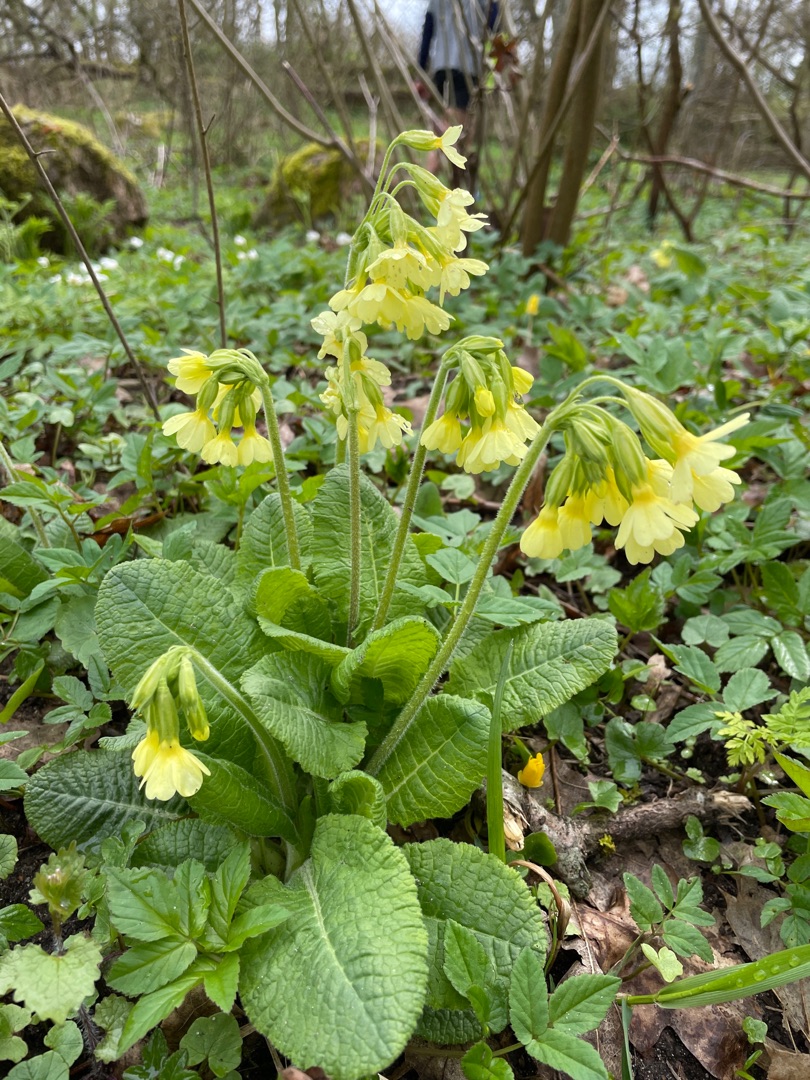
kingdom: Plantae
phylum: Tracheophyta
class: Magnoliopsida
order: Ericales
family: Primulaceae
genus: Primula
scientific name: Primula elatior
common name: Fladkravet kodriver
